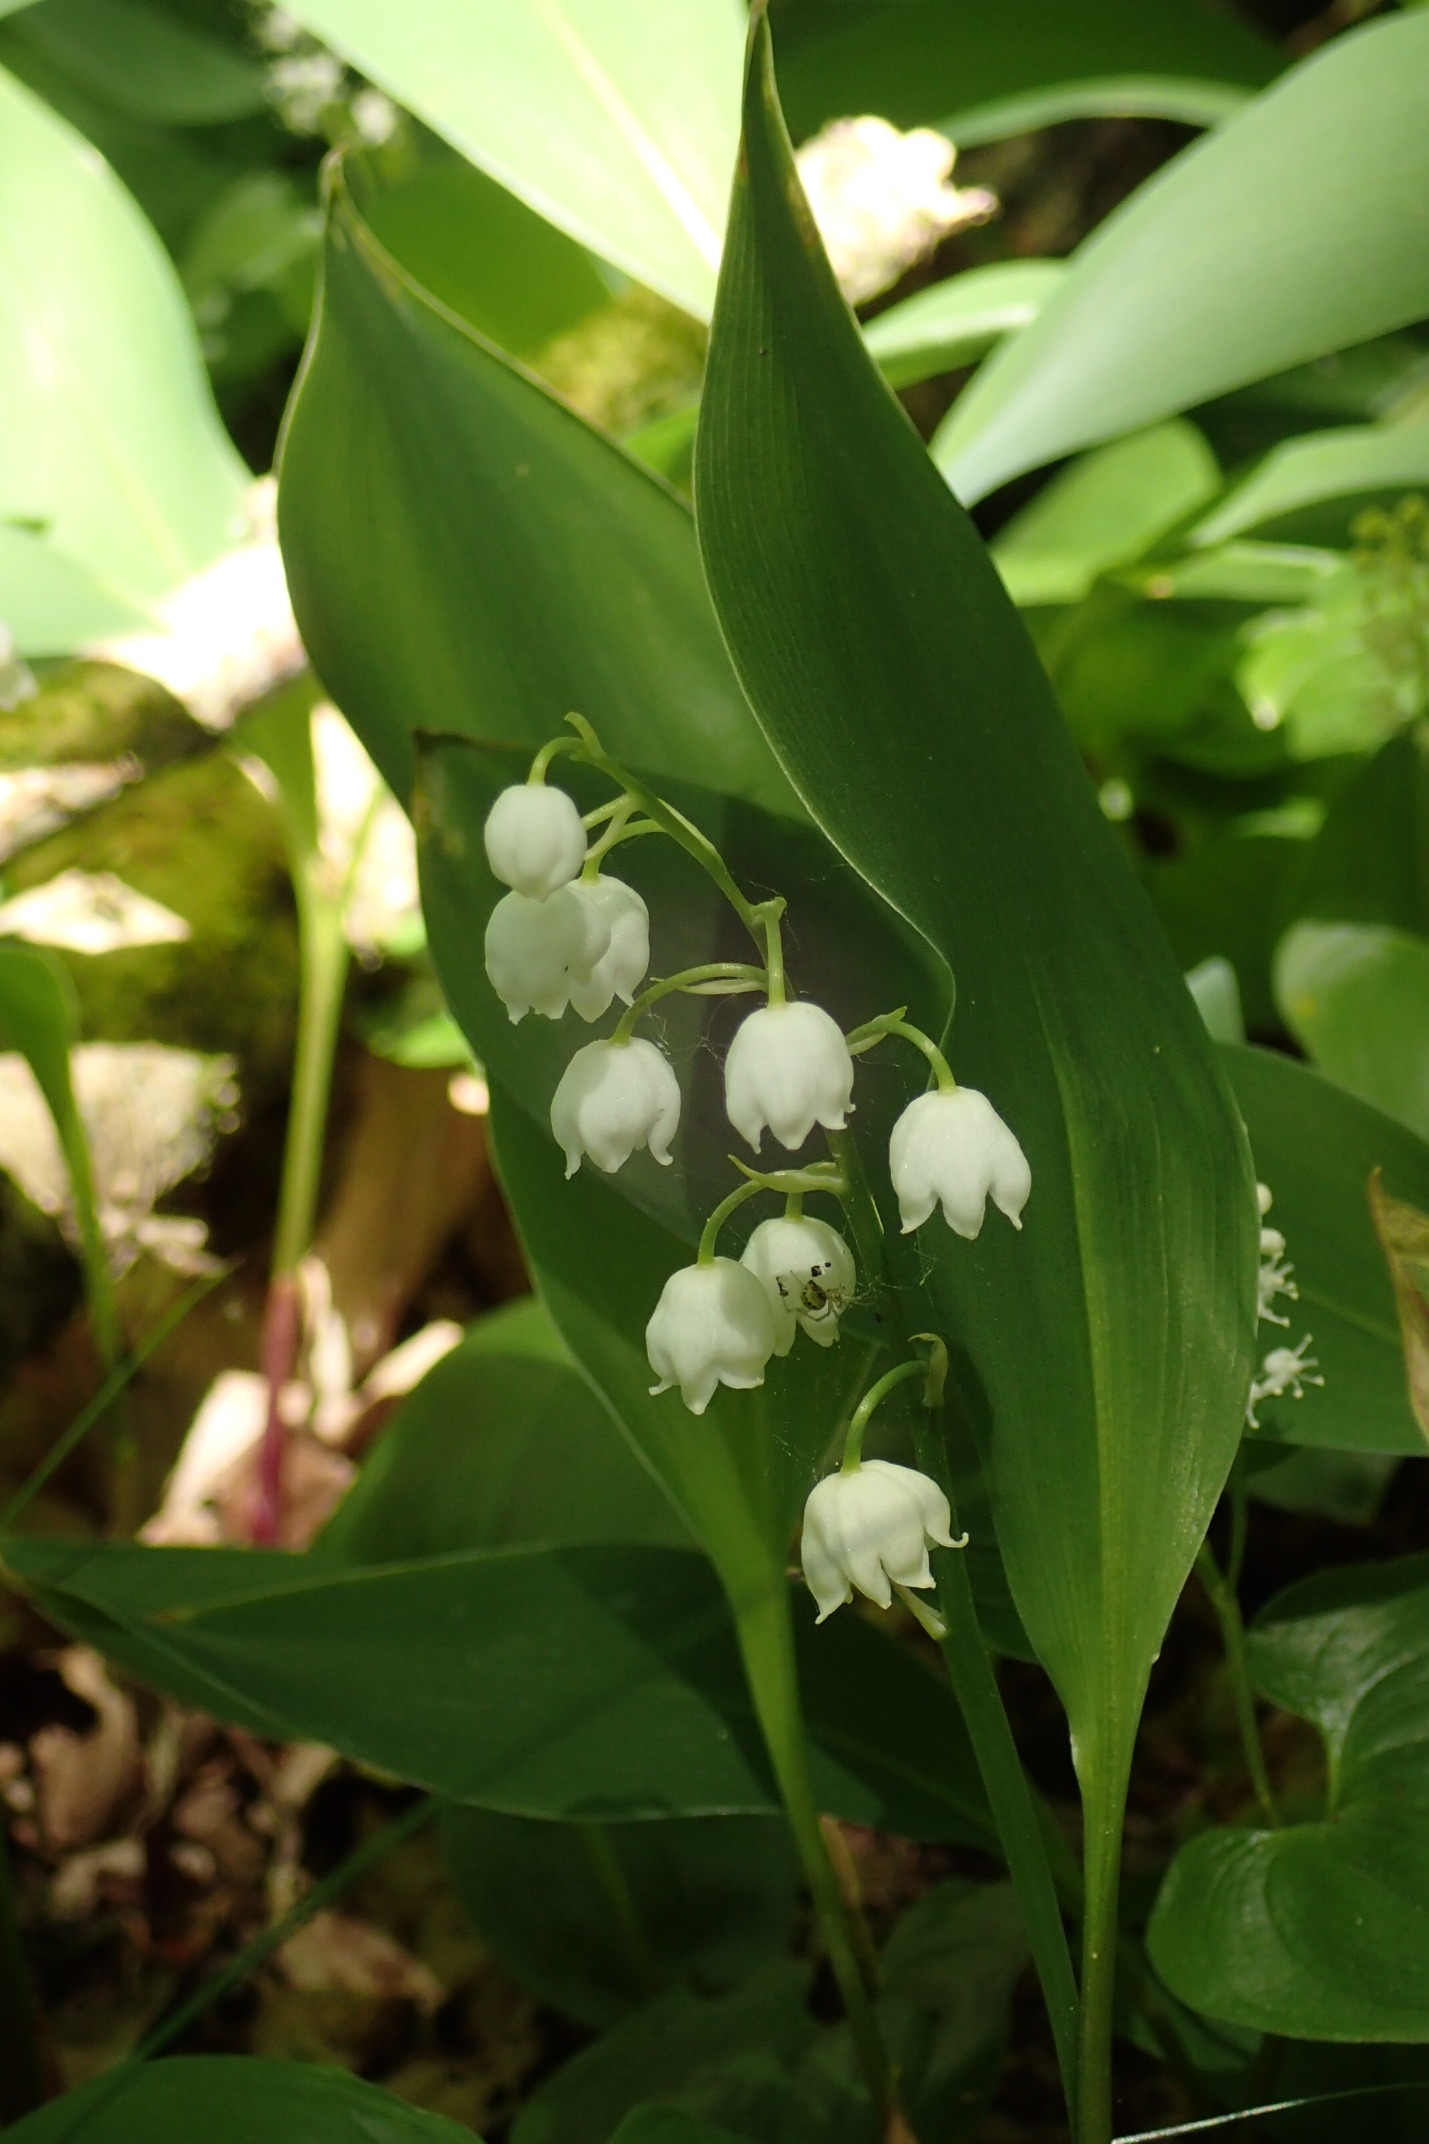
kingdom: Plantae
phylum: Tracheophyta
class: Liliopsida
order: Asparagales
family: Asparagaceae
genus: Convallaria
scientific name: Convallaria majalis
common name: Liljekonval
